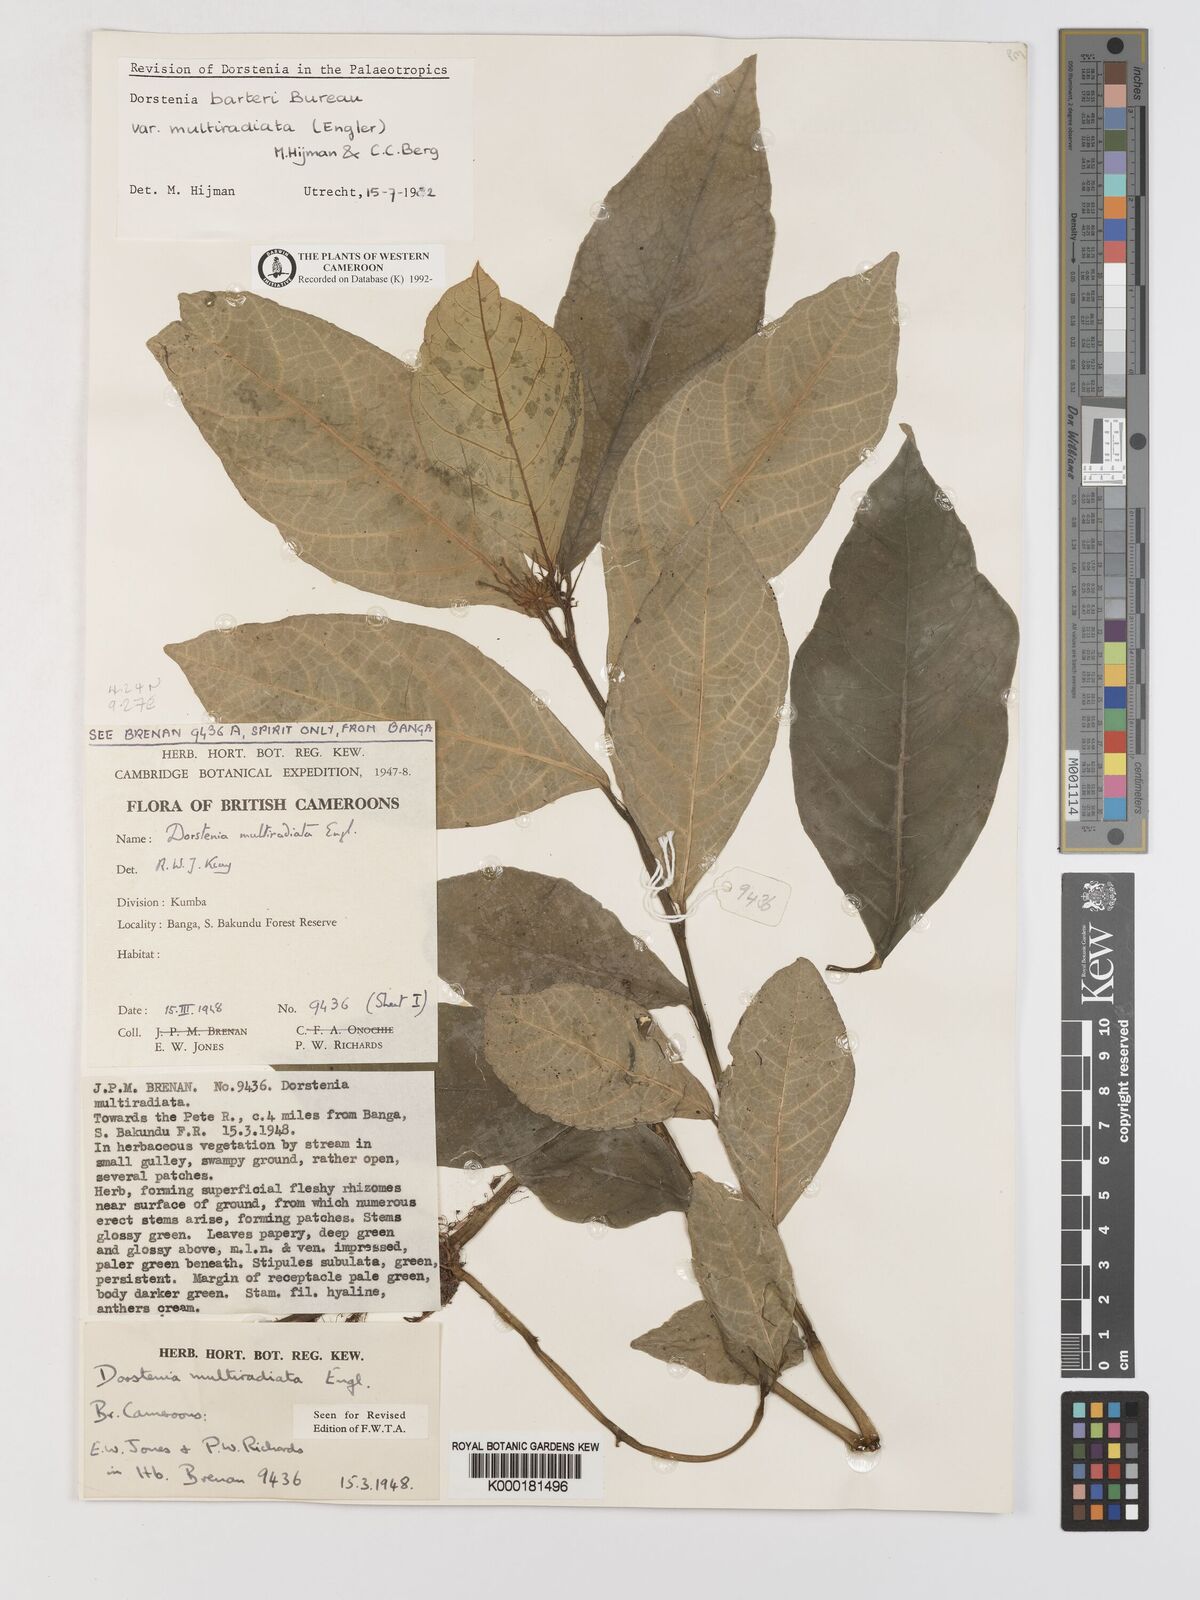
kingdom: Plantae
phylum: Tracheophyta
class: Magnoliopsida
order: Rosales
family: Moraceae
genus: Dorstenia
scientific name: Dorstenia barteri
